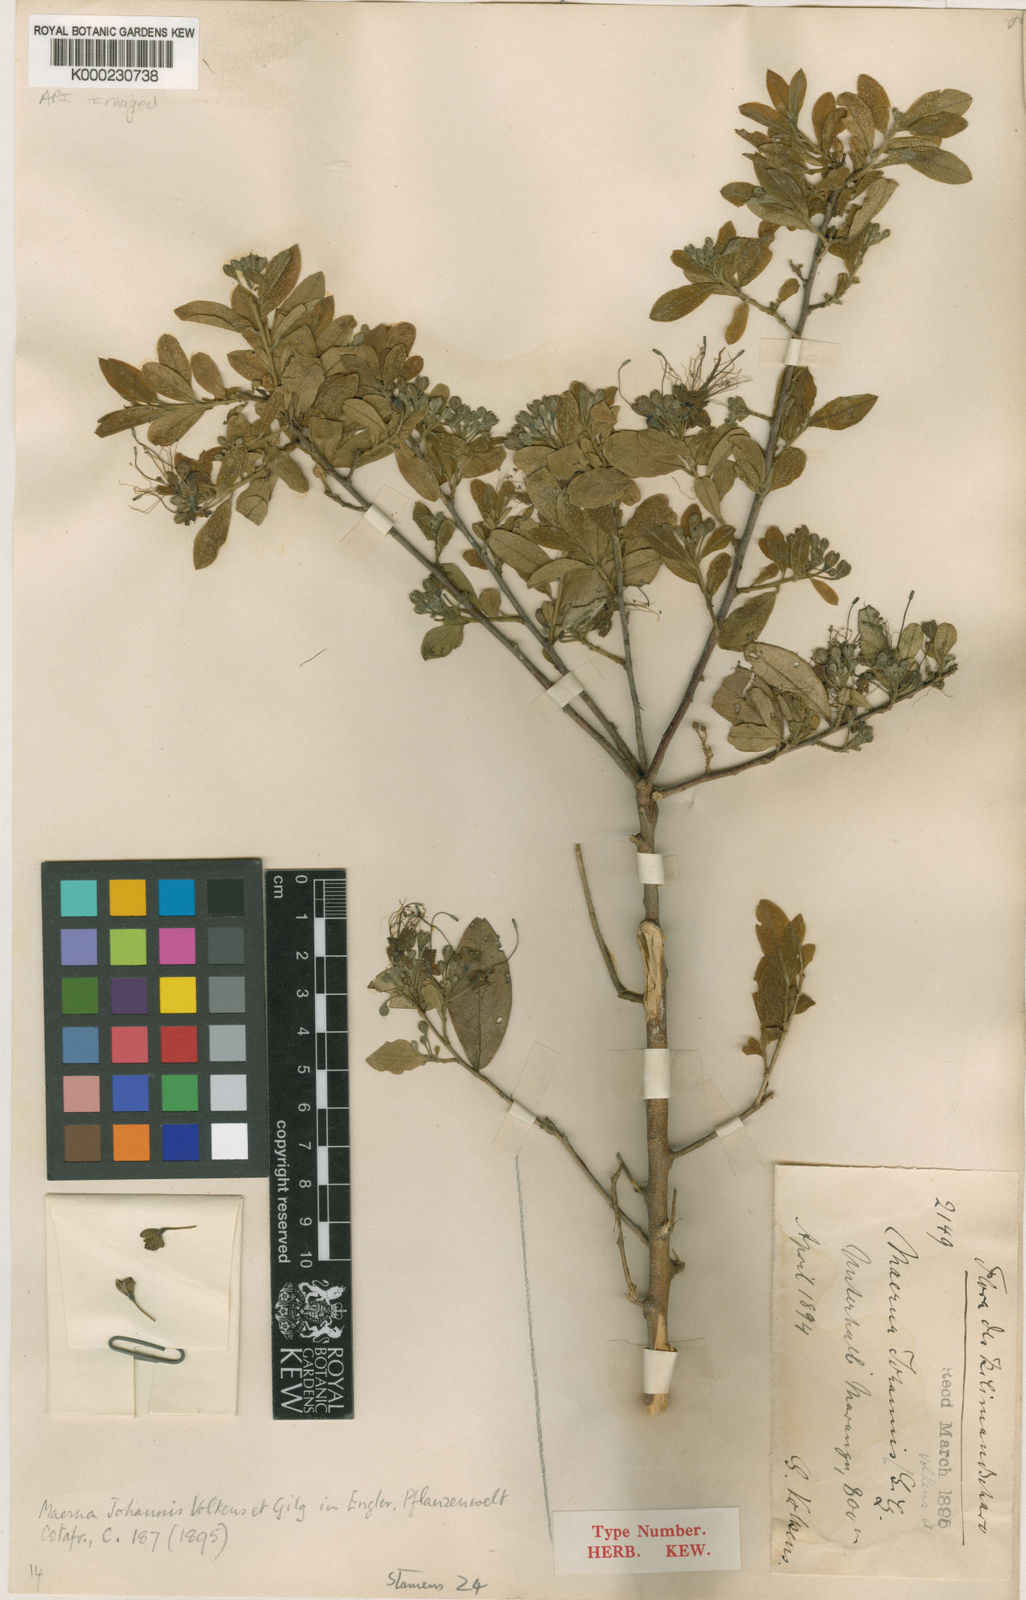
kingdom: Plantae
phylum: Tracheophyta
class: Magnoliopsida
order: Brassicales
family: Capparaceae
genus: Maerua
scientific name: Maerua
